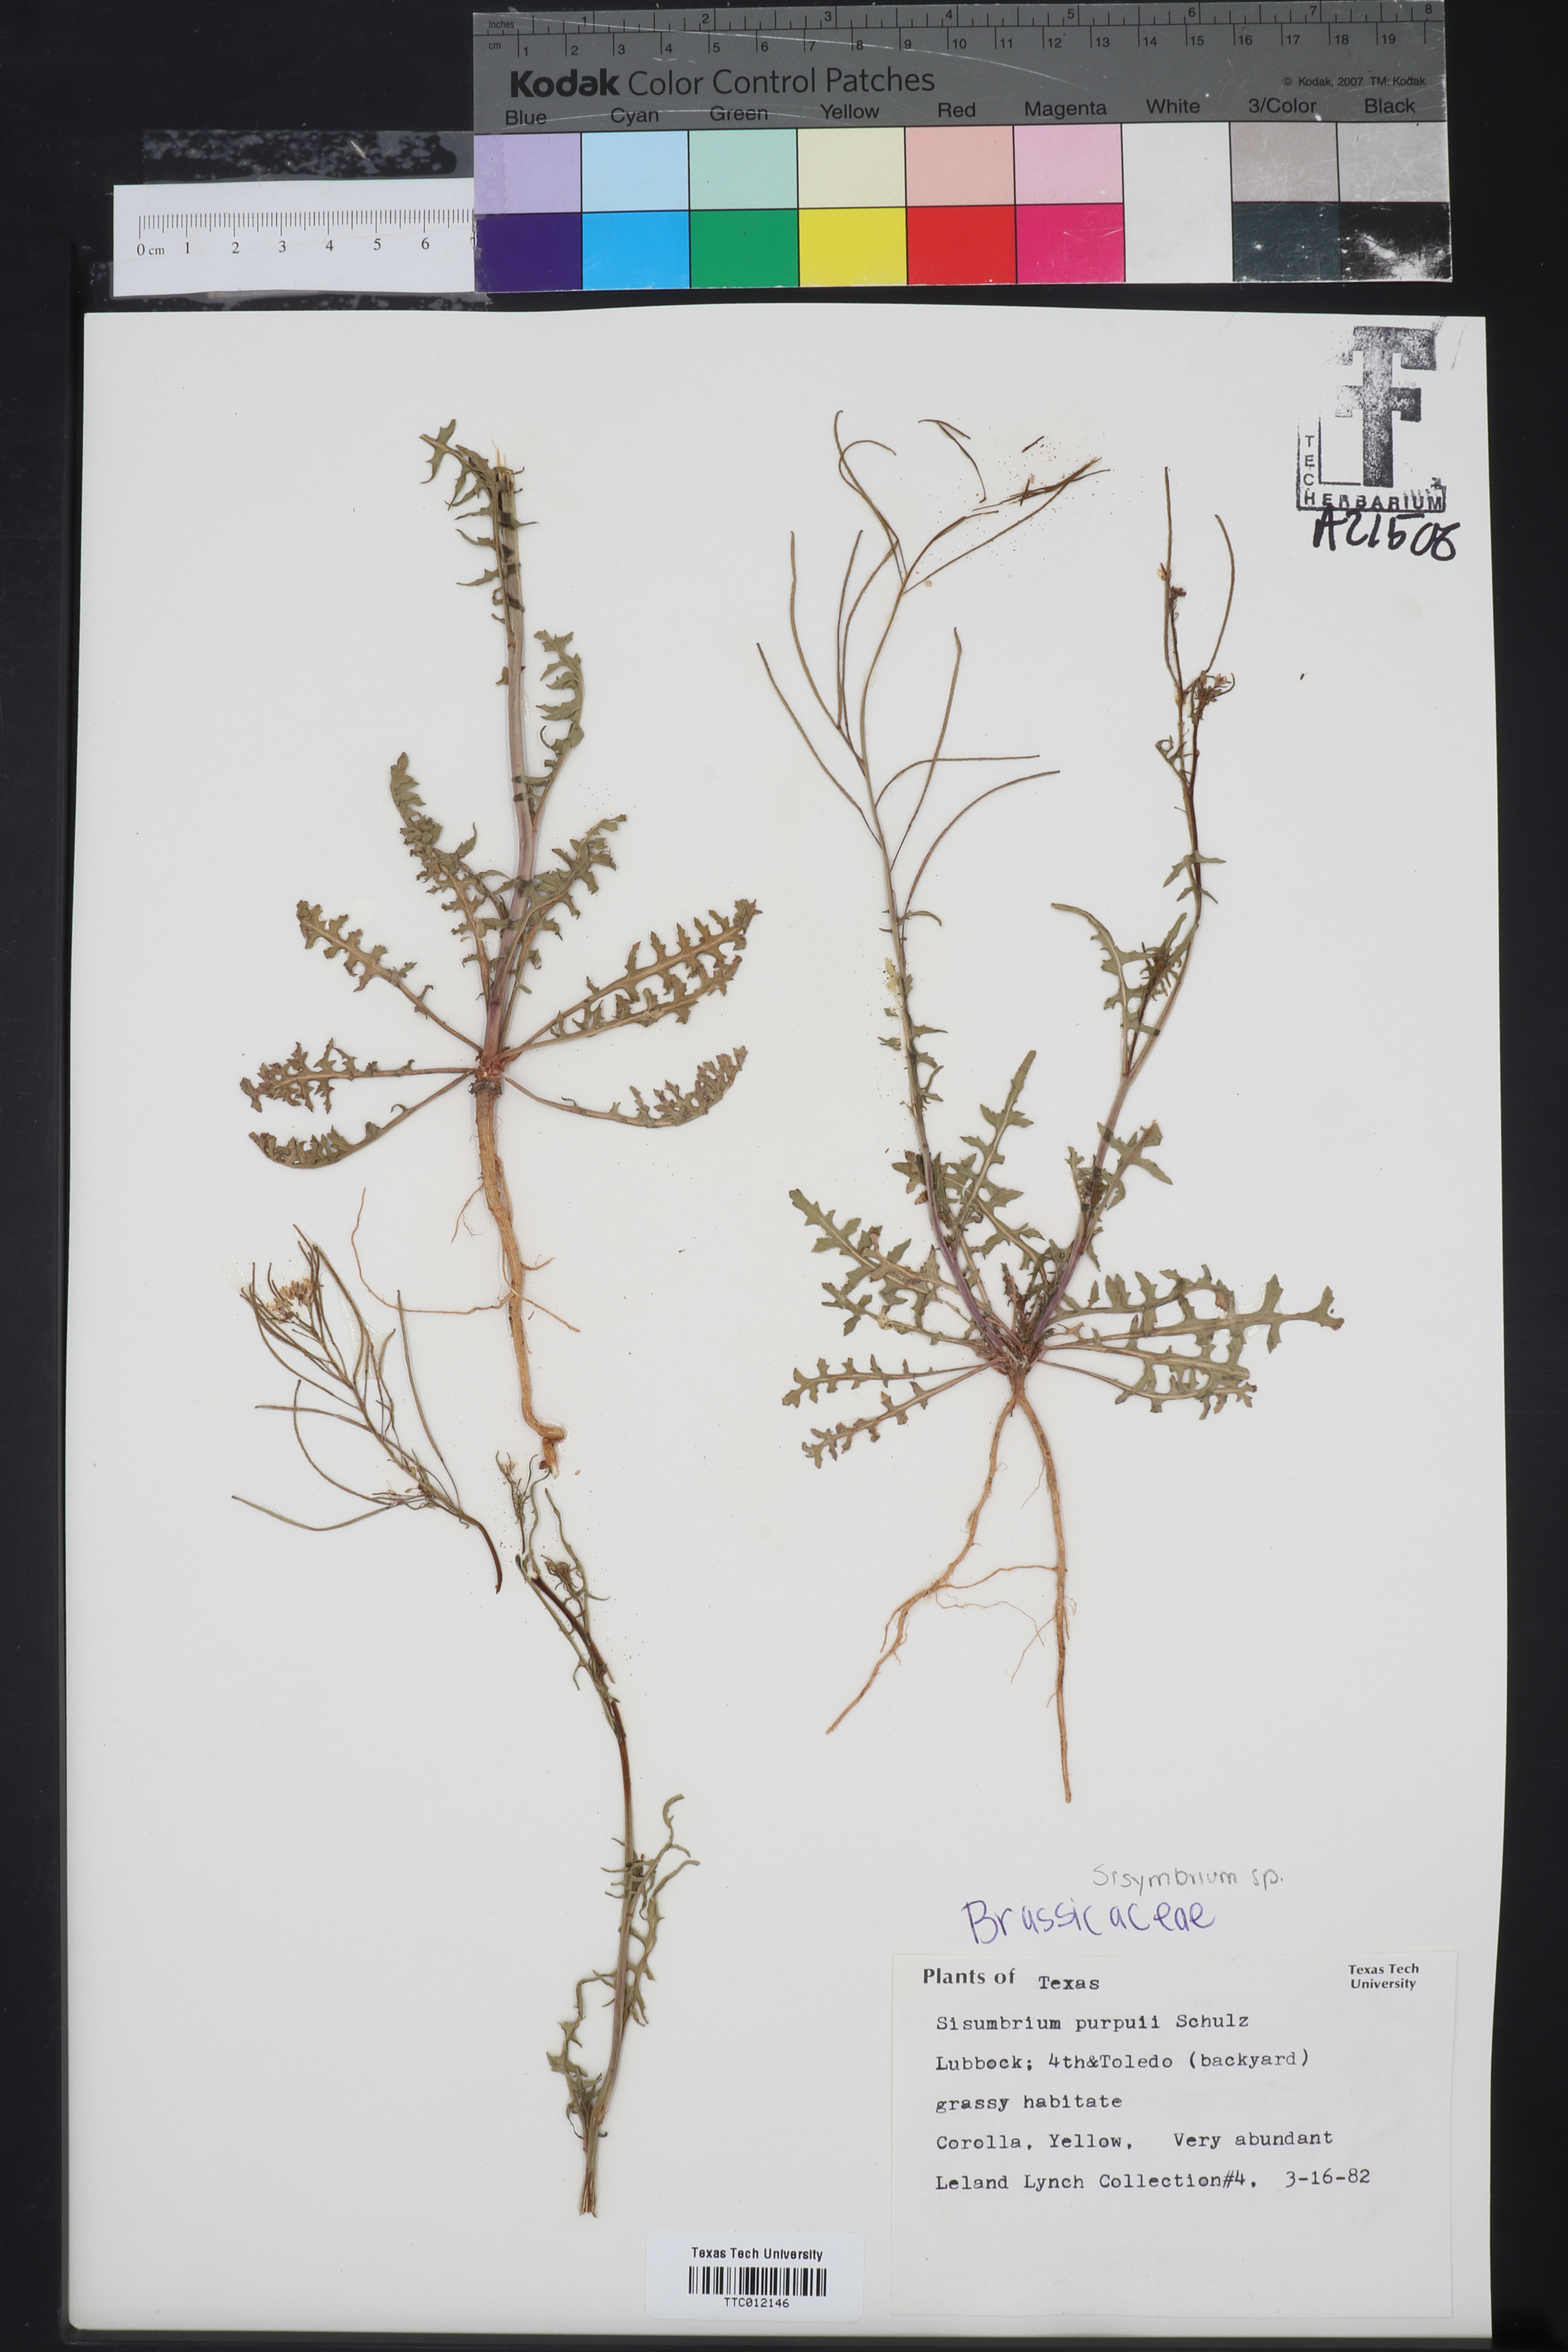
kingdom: Plantae
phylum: Tracheophyta
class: Magnoliopsida
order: Brassicales
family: Brassicaceae
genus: Mostacillastrum
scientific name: Mostacillastrum purpusii
